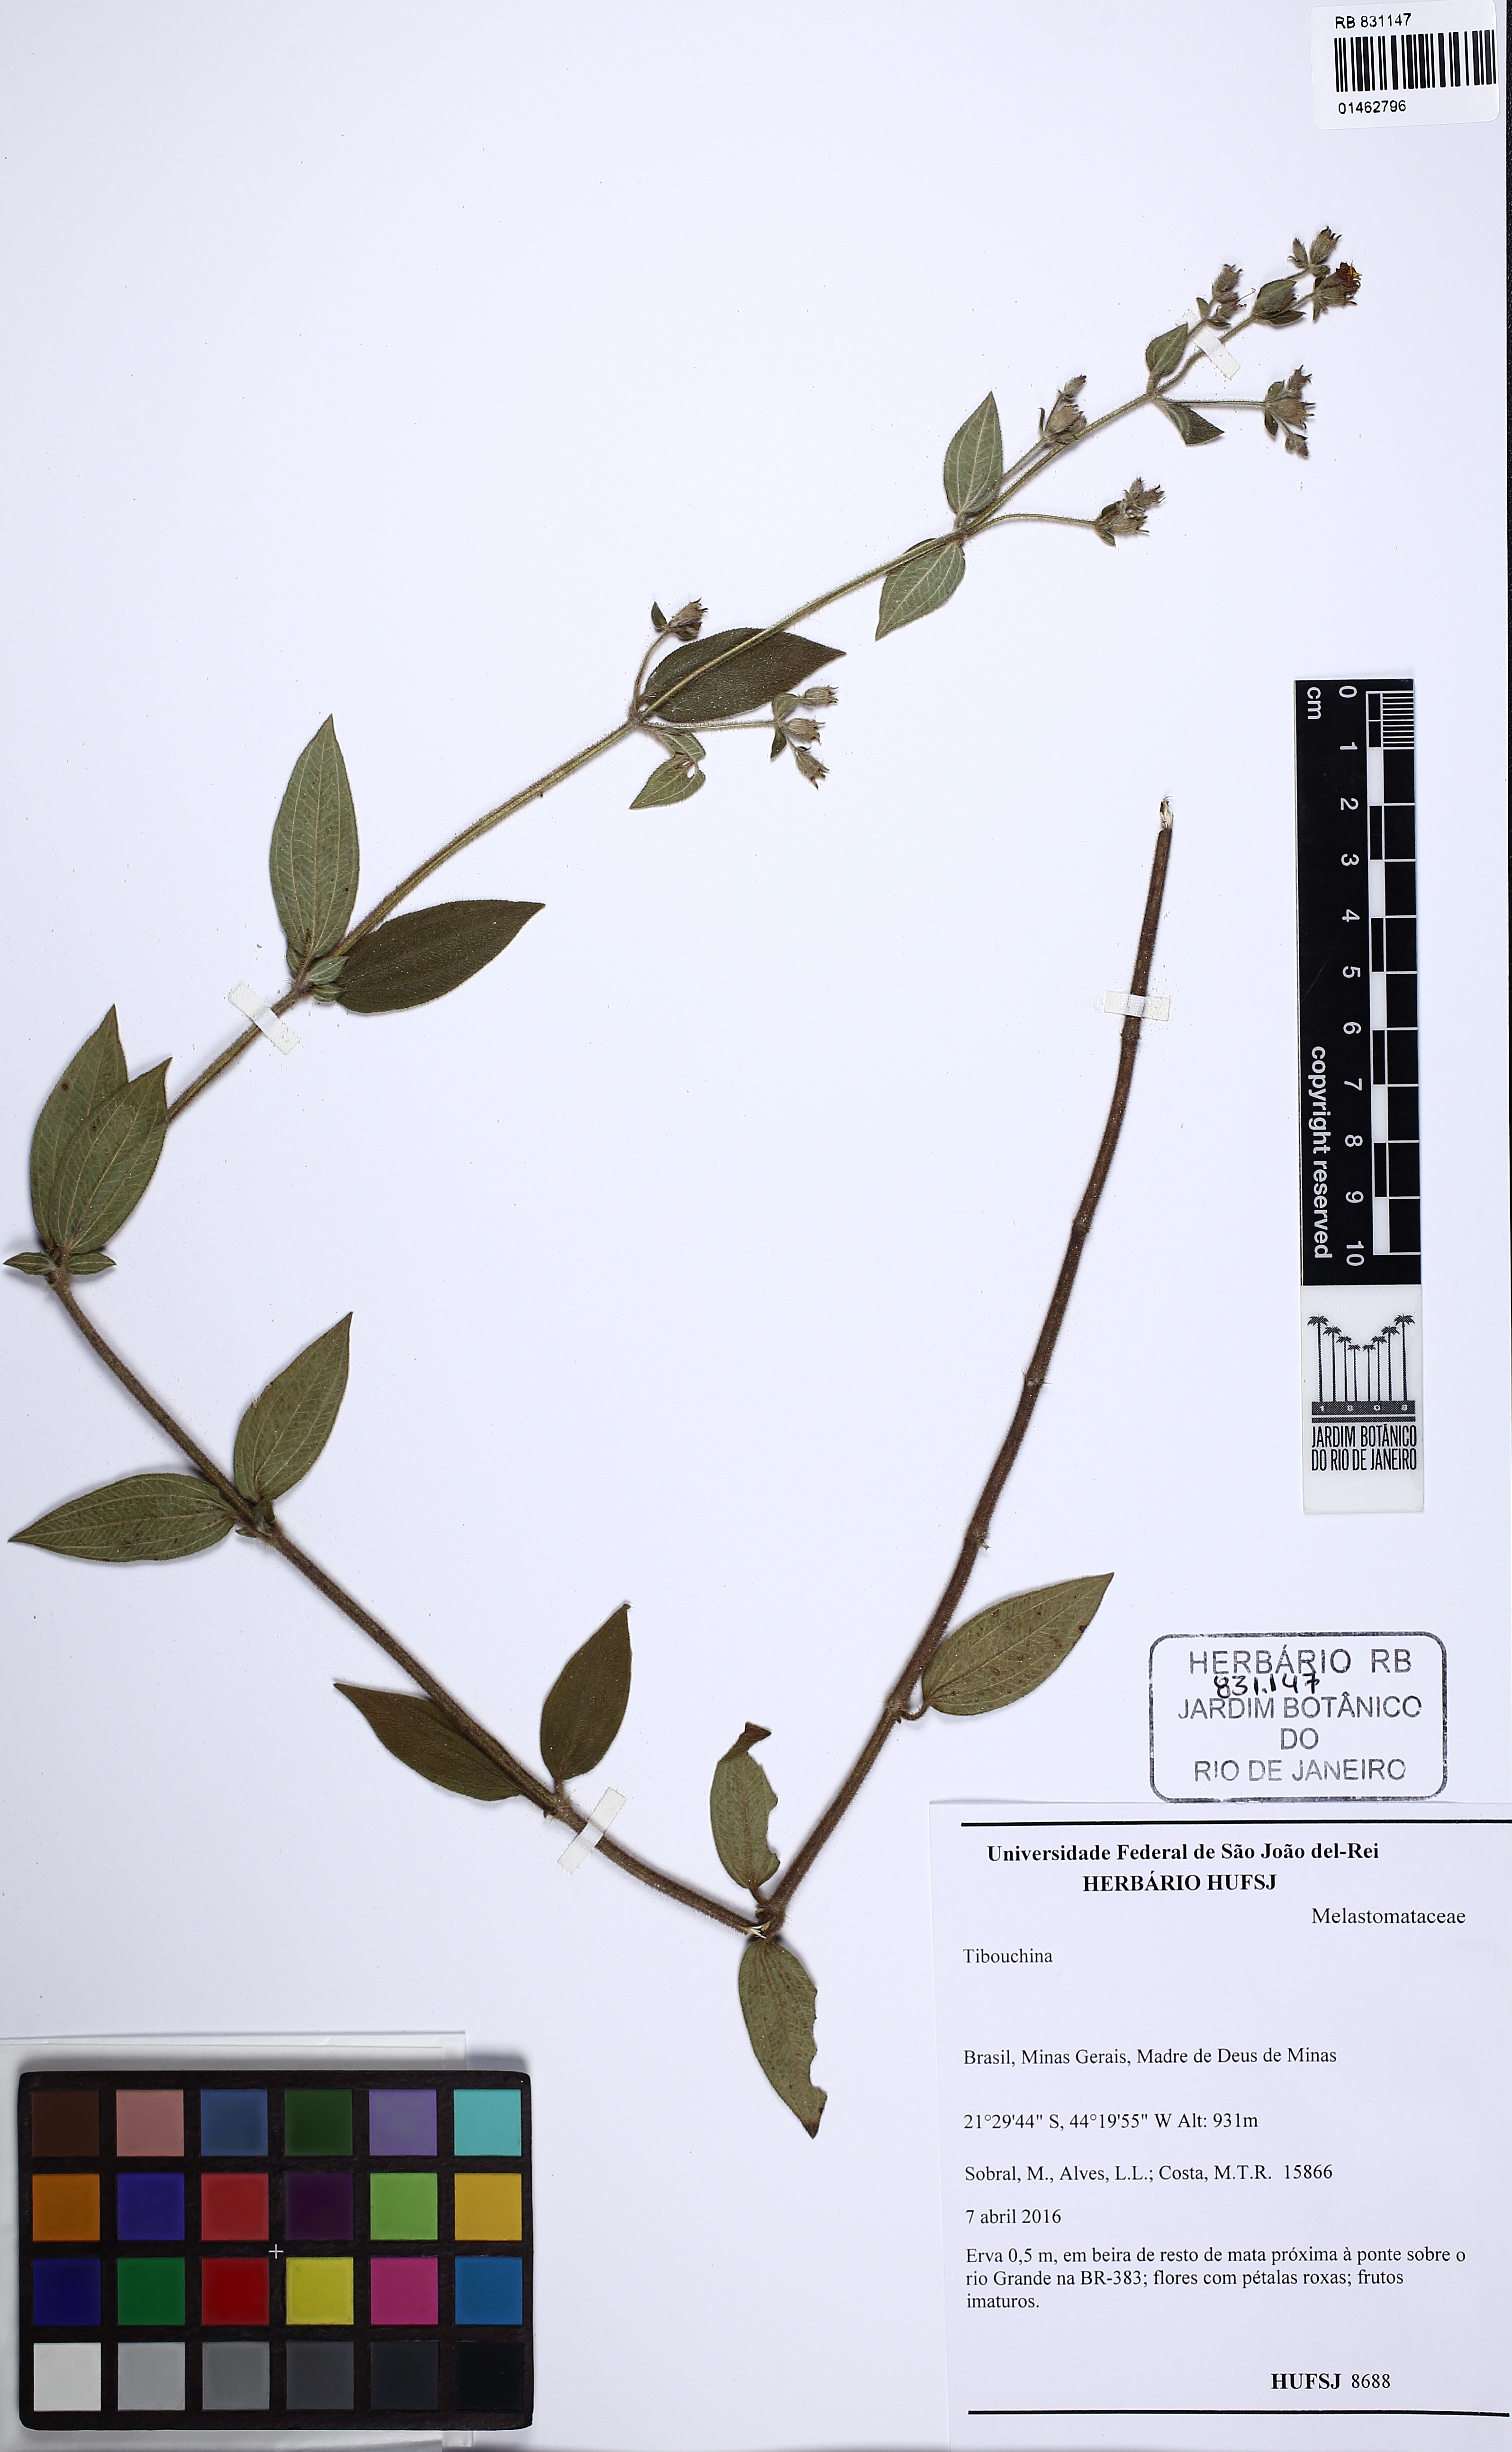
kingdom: Plantae
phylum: Tracheophyta
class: Magnoliopsida
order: Myrtales
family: Melastomataceae
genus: Tibouchina
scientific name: Tibouchina
